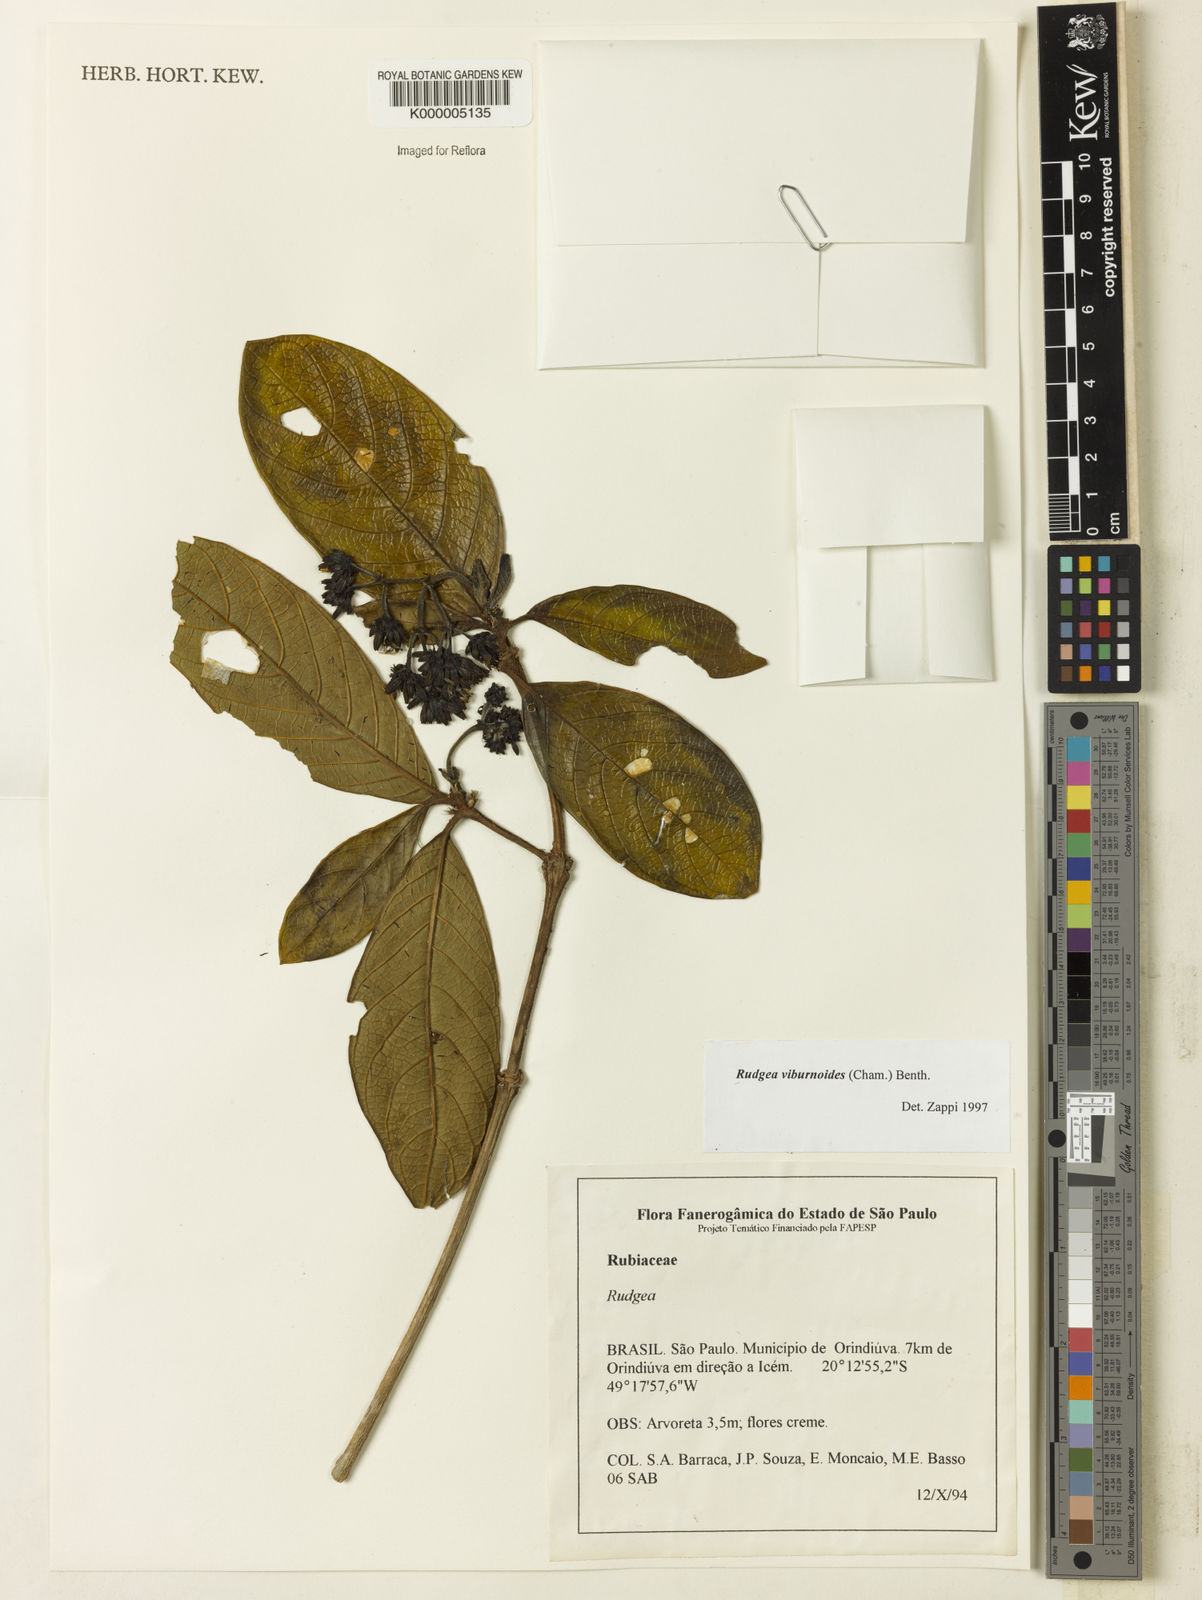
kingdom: Plantae
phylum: Tracheophyta
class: Magnoliopsida
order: Gentianales
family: Rubiaceae
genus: Rudgea
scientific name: Rudgea viburnoides
